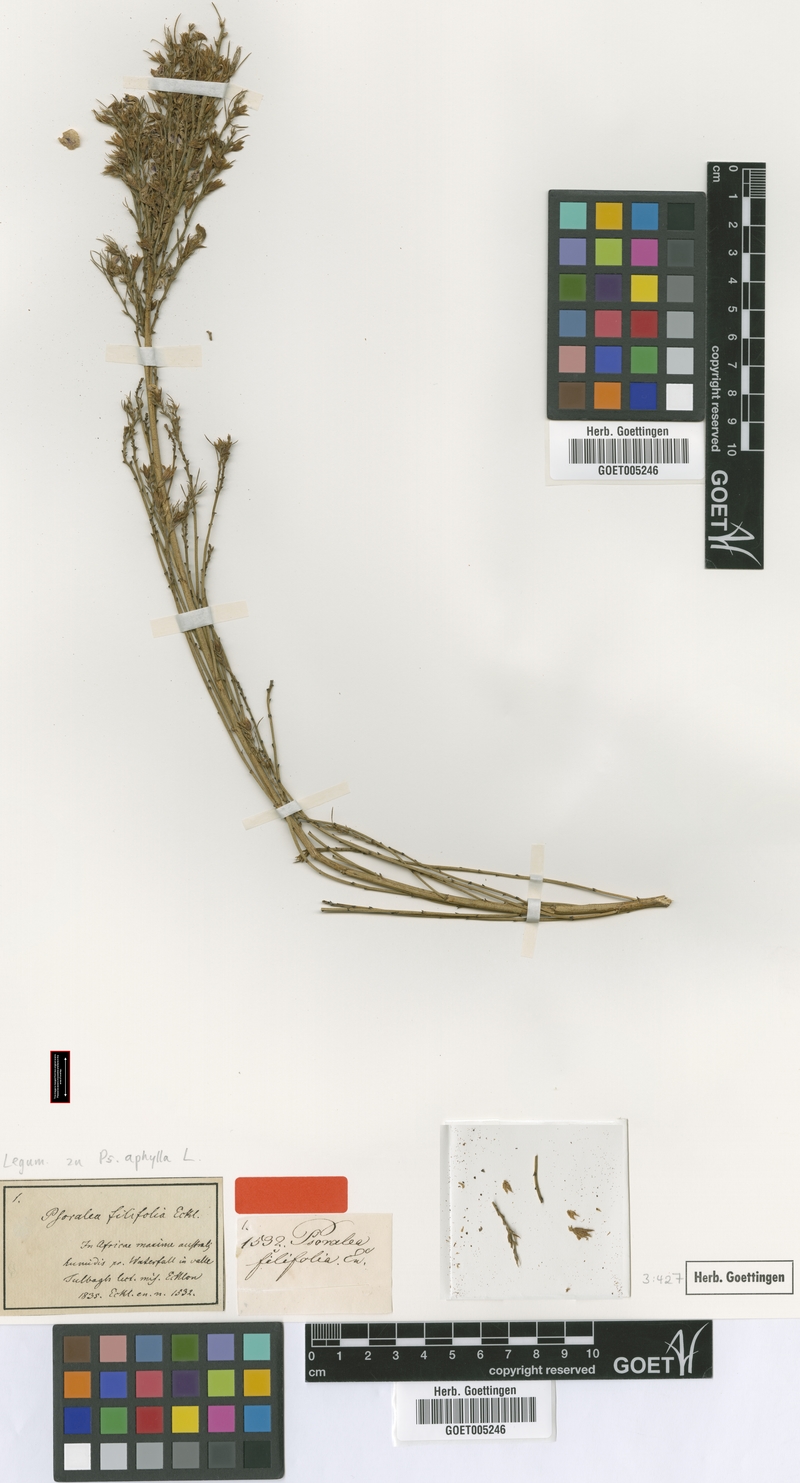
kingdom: Plantae
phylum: Tracheophyta
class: Magnoliopsida
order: Fabales
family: Fabaceae
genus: Psoralea
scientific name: Psoralea aphylla
